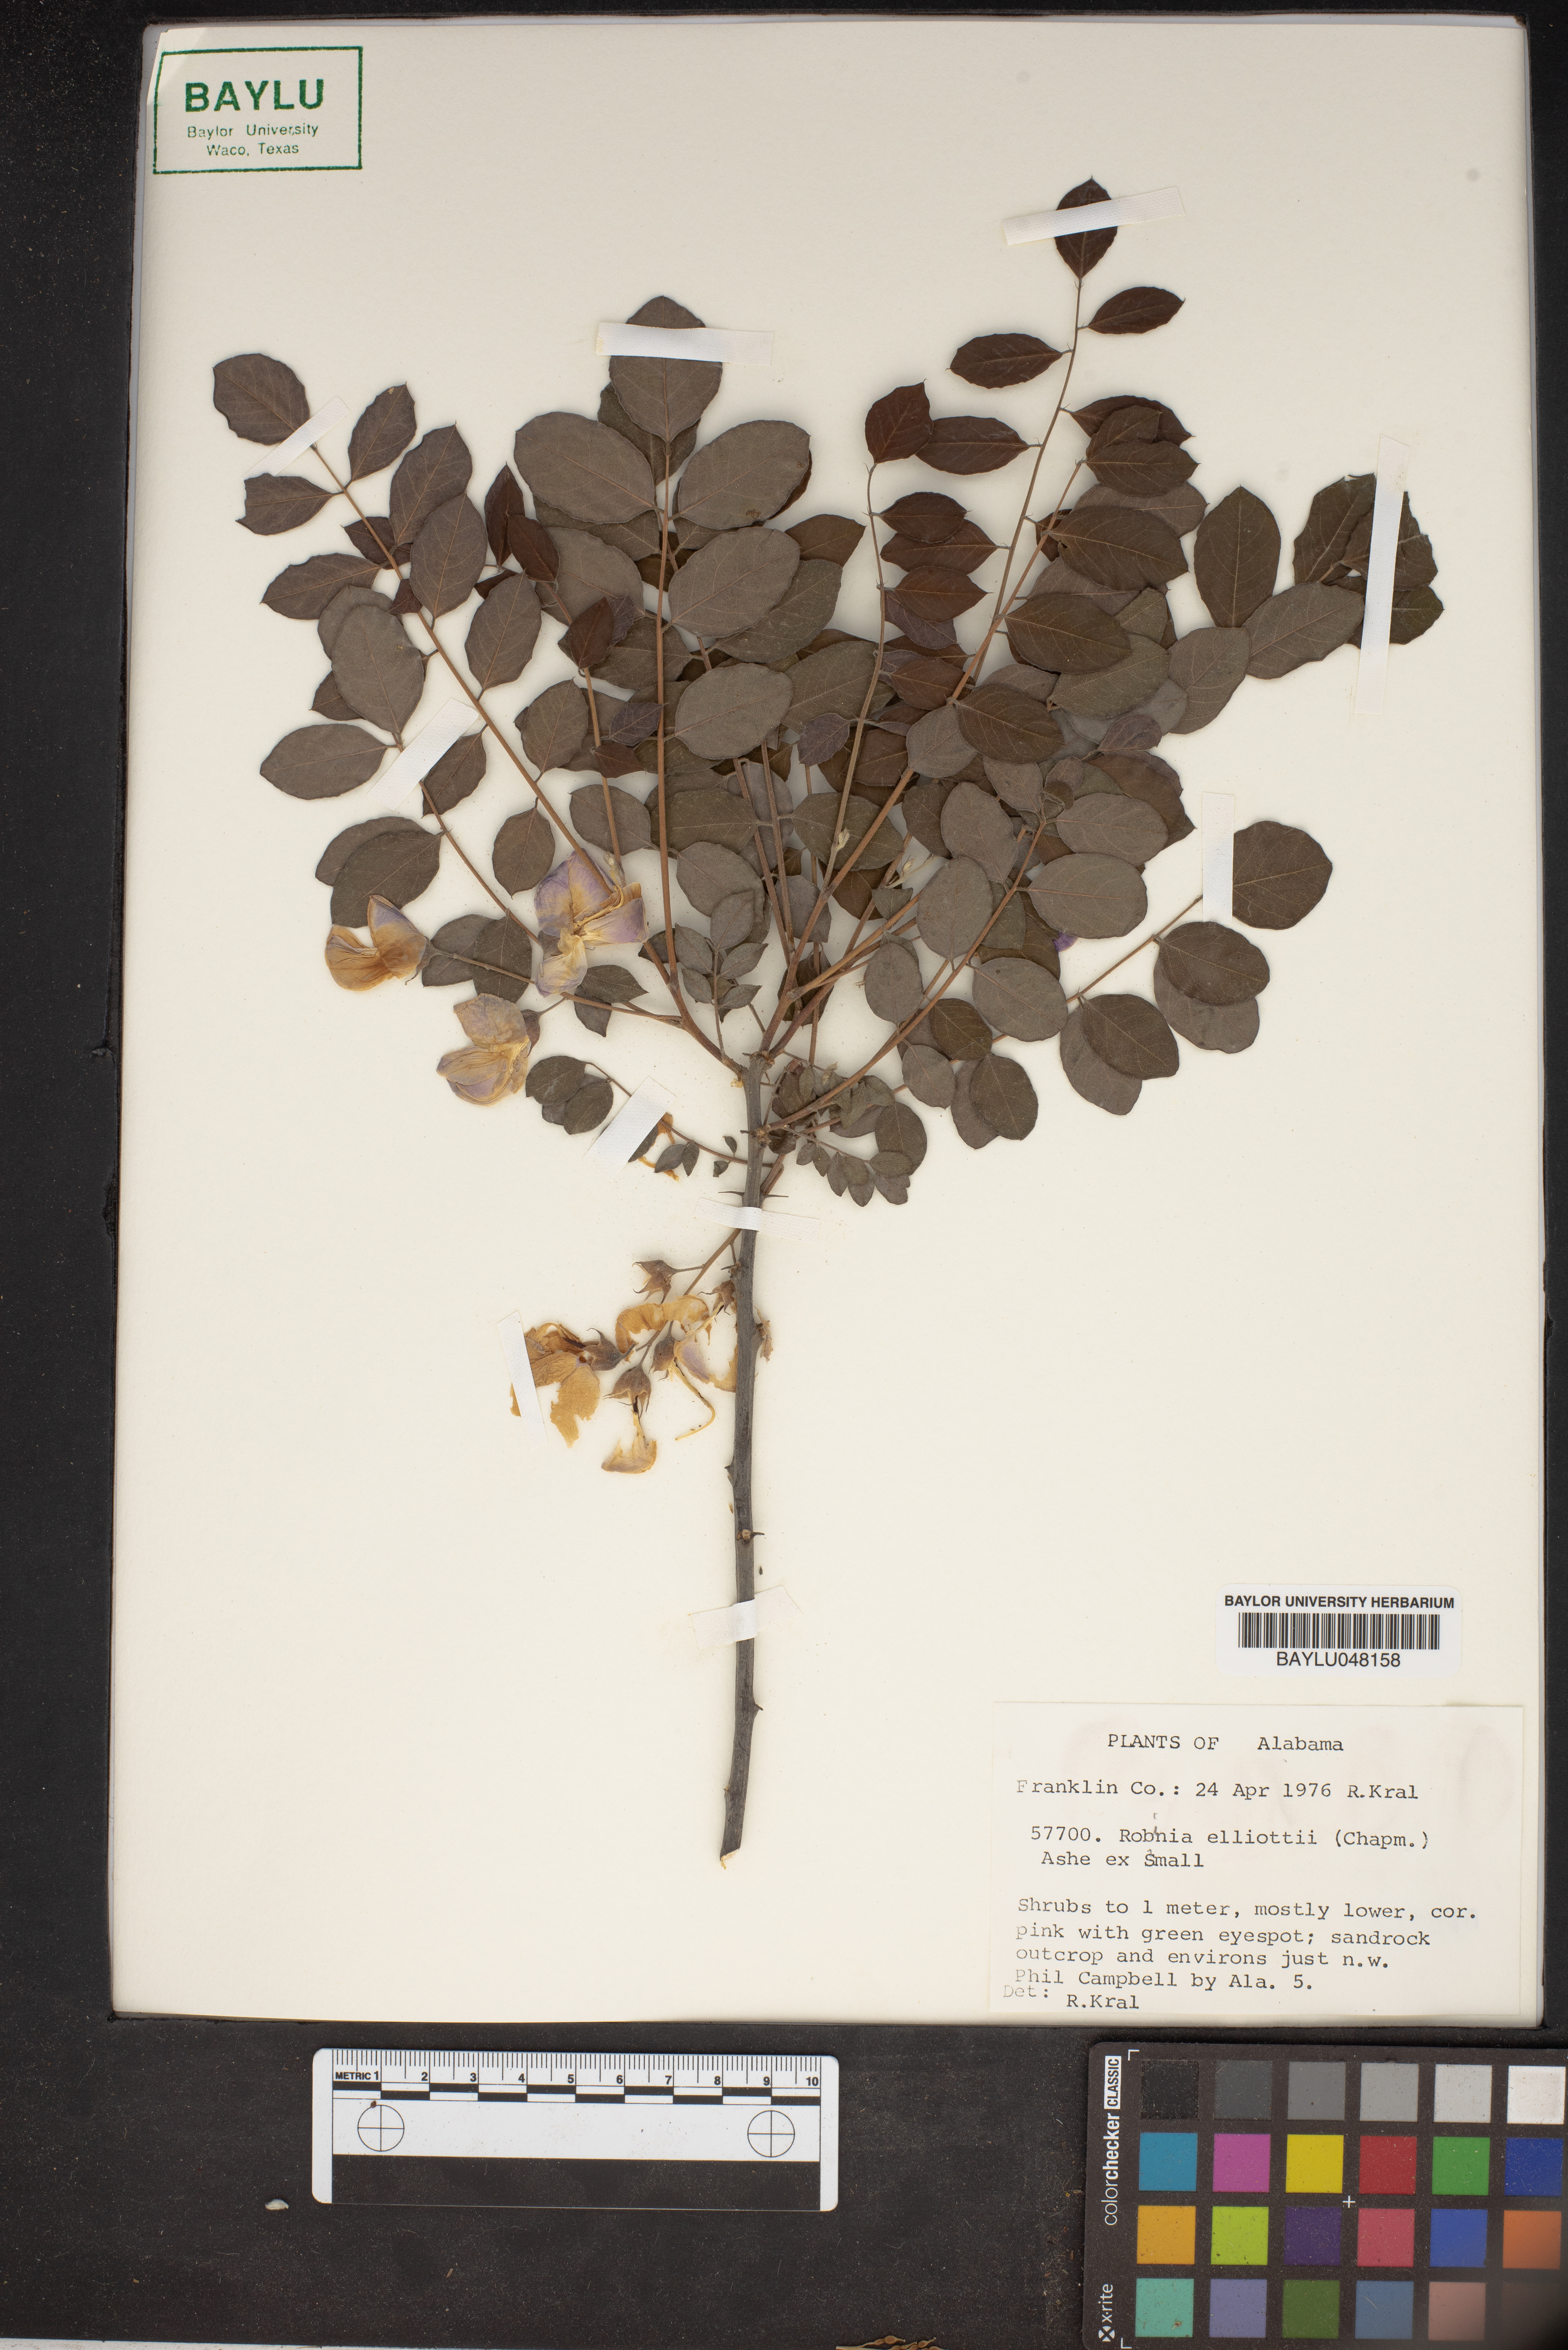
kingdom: Plantae
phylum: Tracheophyta
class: Magnoliopsida
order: Fabales
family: Fabaceae
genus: Robinia
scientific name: Robinia hispida
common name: Bristly locust
